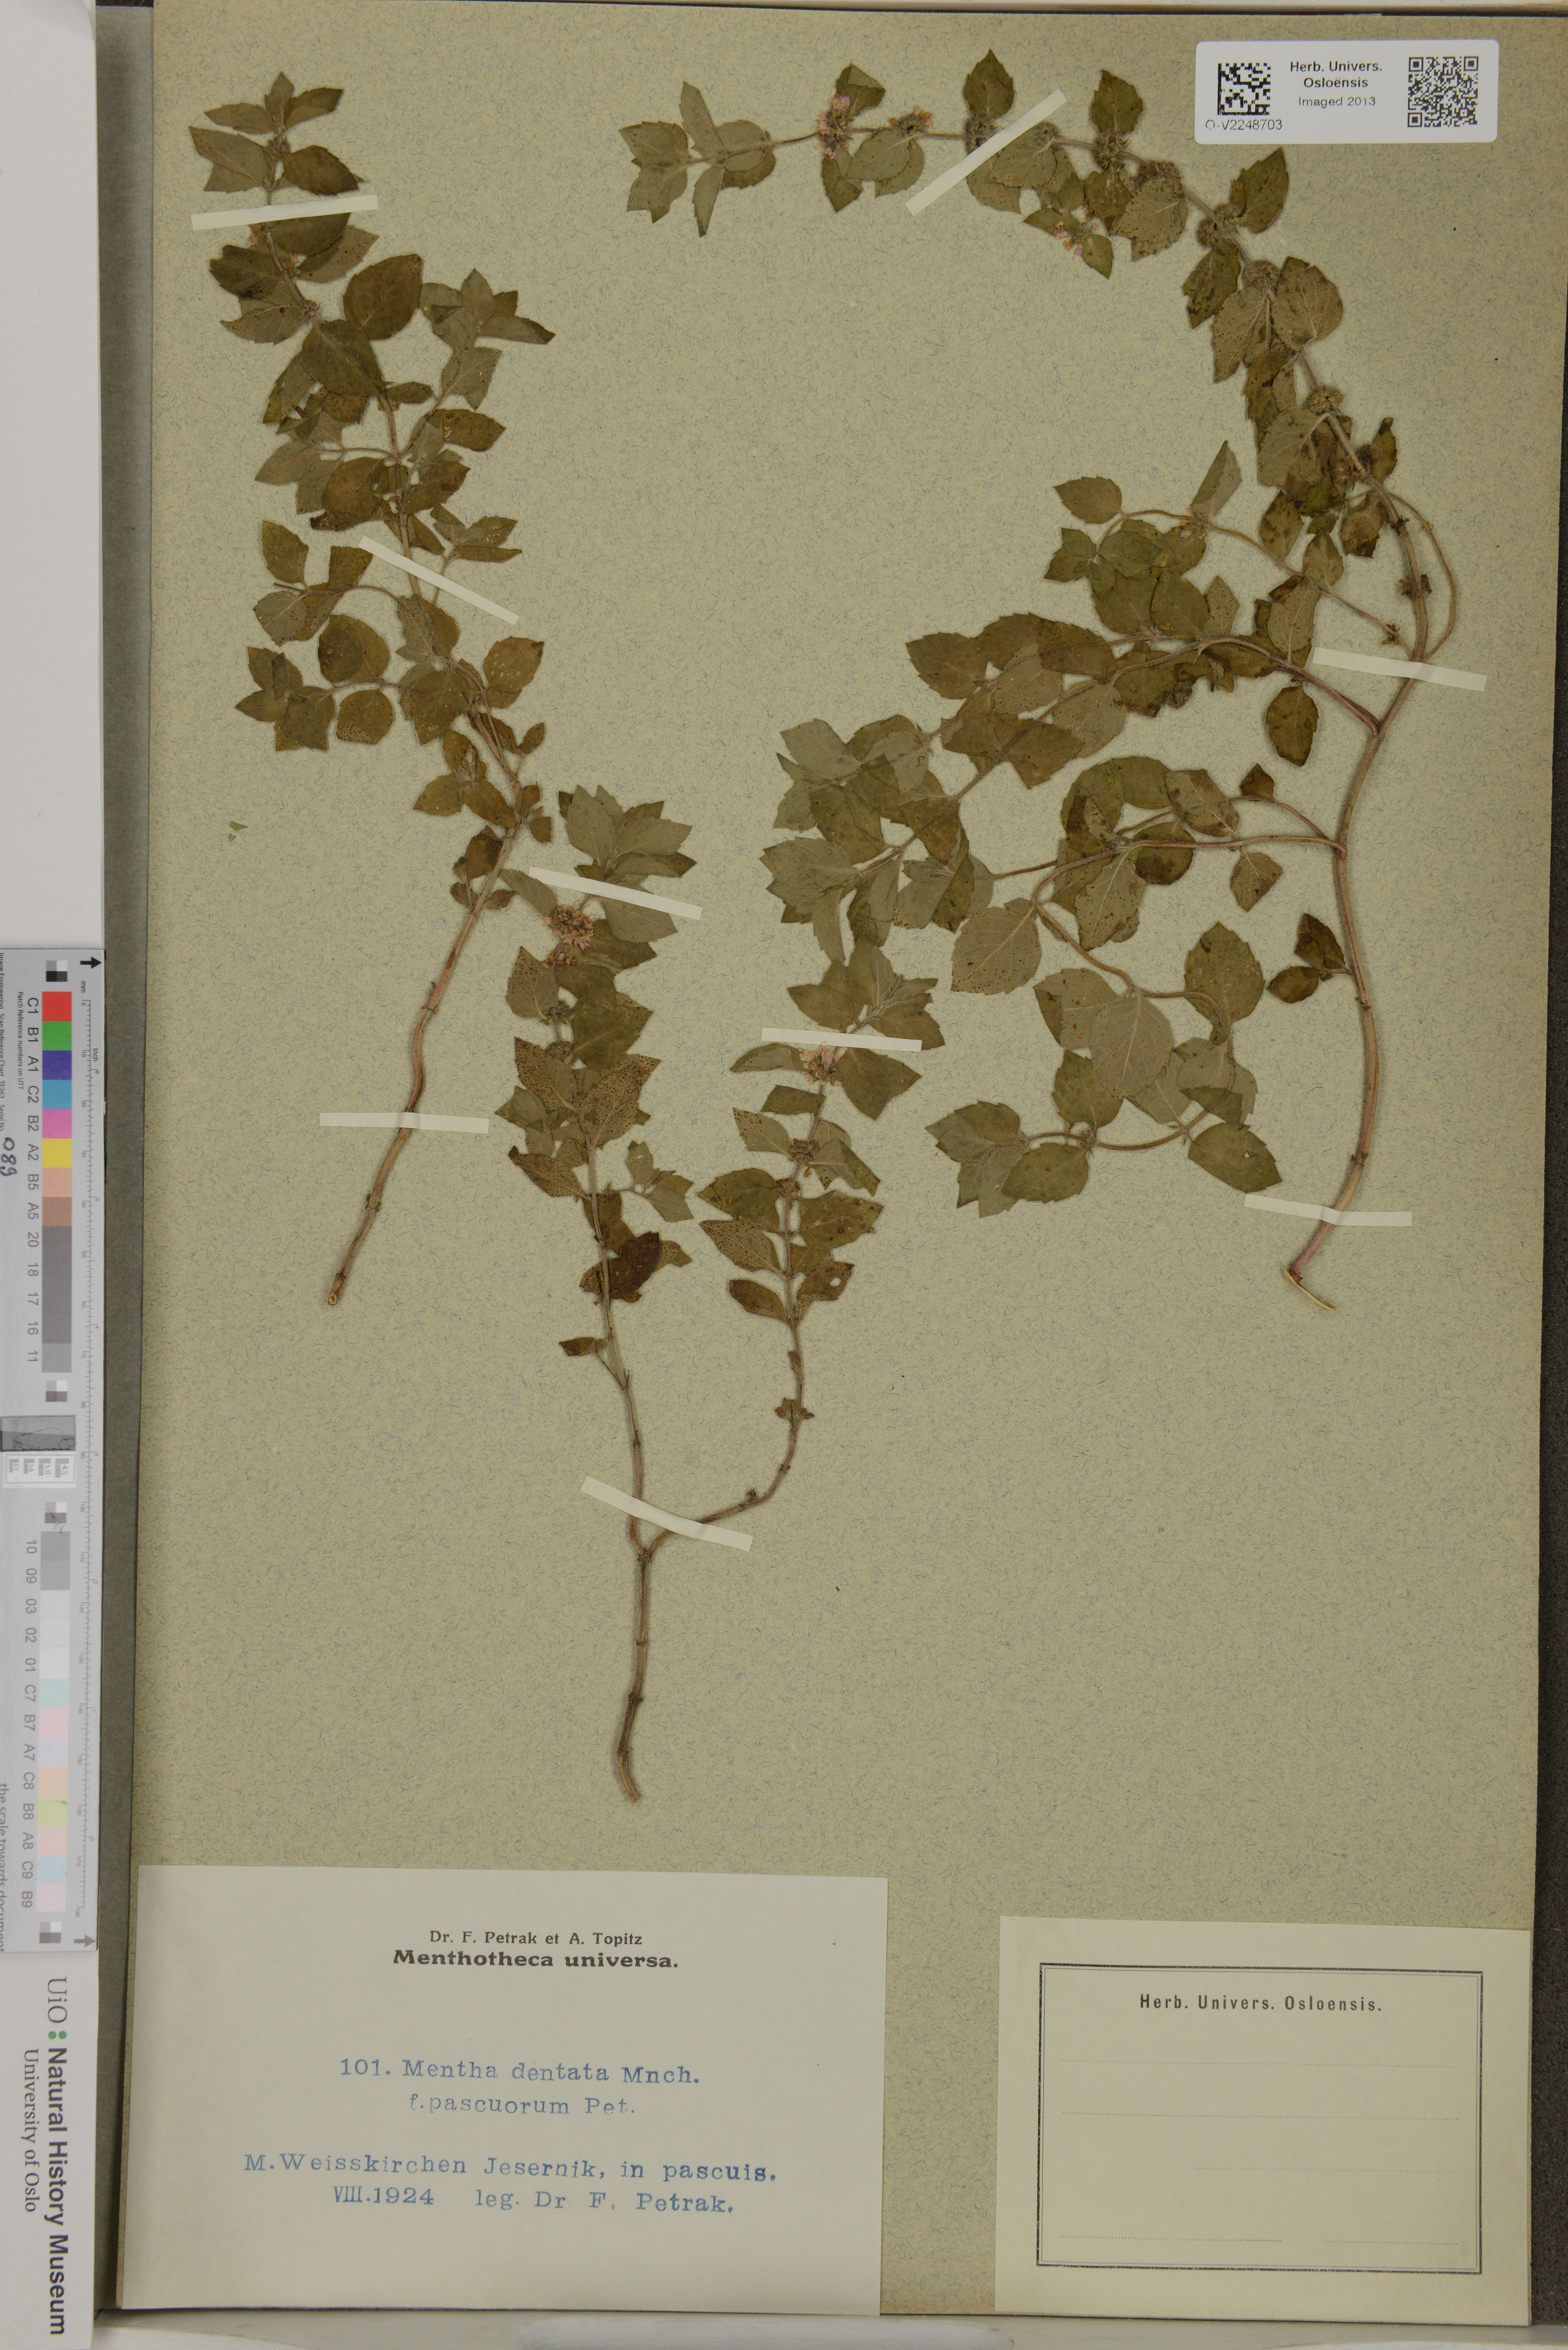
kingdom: Plantae
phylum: Tracheophyta
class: Magnoliopsida
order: Lamiales
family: Lamiaceae
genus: Mentha
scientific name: Mentha dentata
